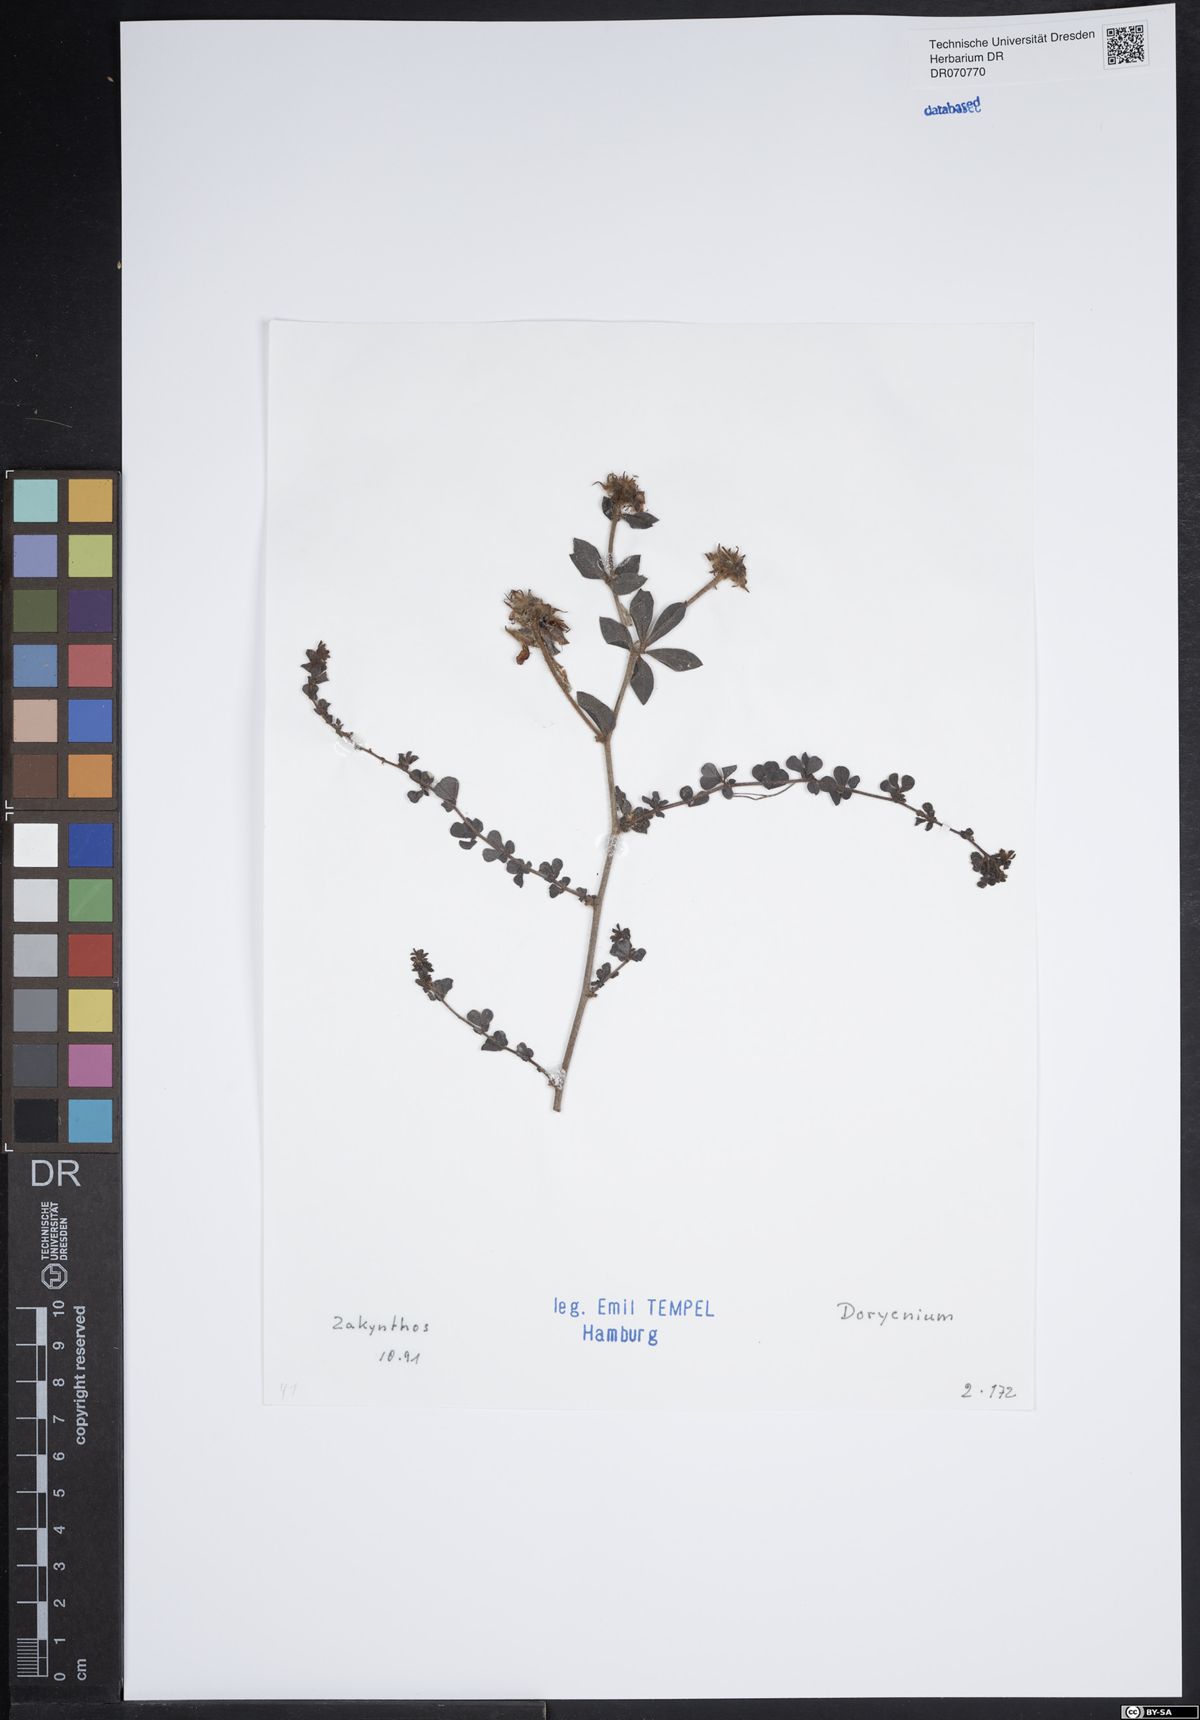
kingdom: Plantae
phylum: Tracheophyta
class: Magnoliopsida
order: Fabales
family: Fabaceae
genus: Lotus
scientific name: Lotus
